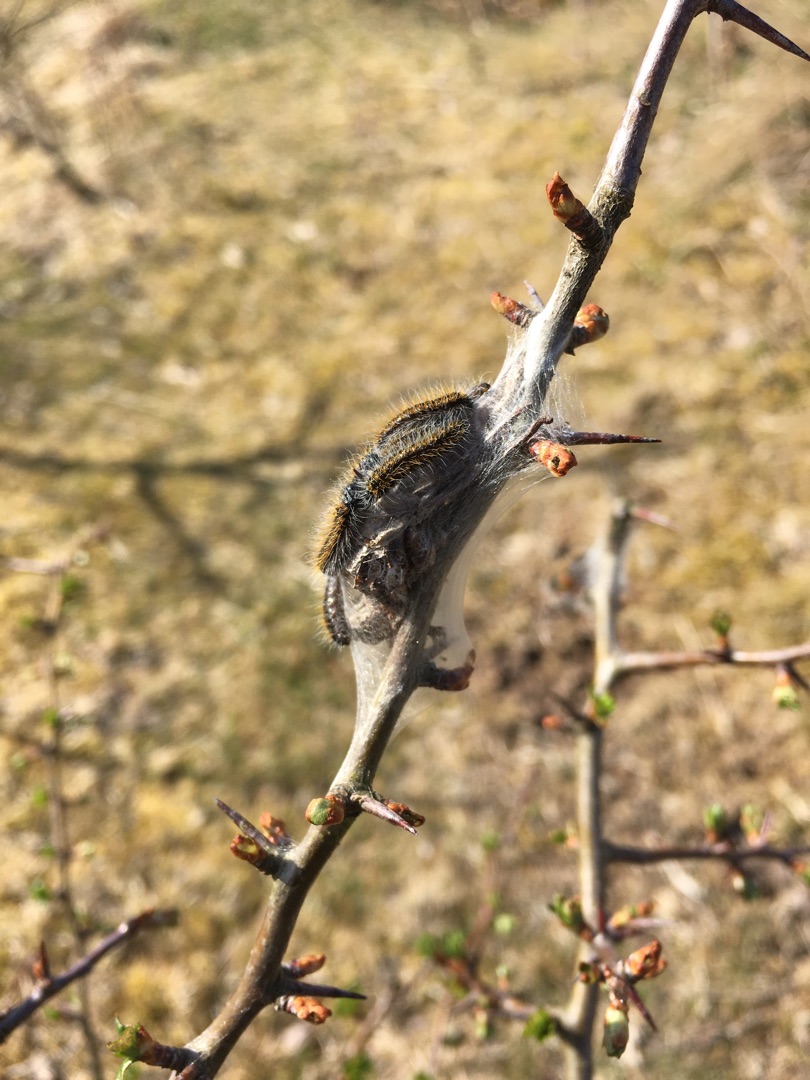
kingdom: Animalia
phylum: Arthropoda
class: Insecta
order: Lepidoptera
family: Pieridae
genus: Aporia
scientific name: Aporia crataegi
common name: Sortåret hvidvinge
